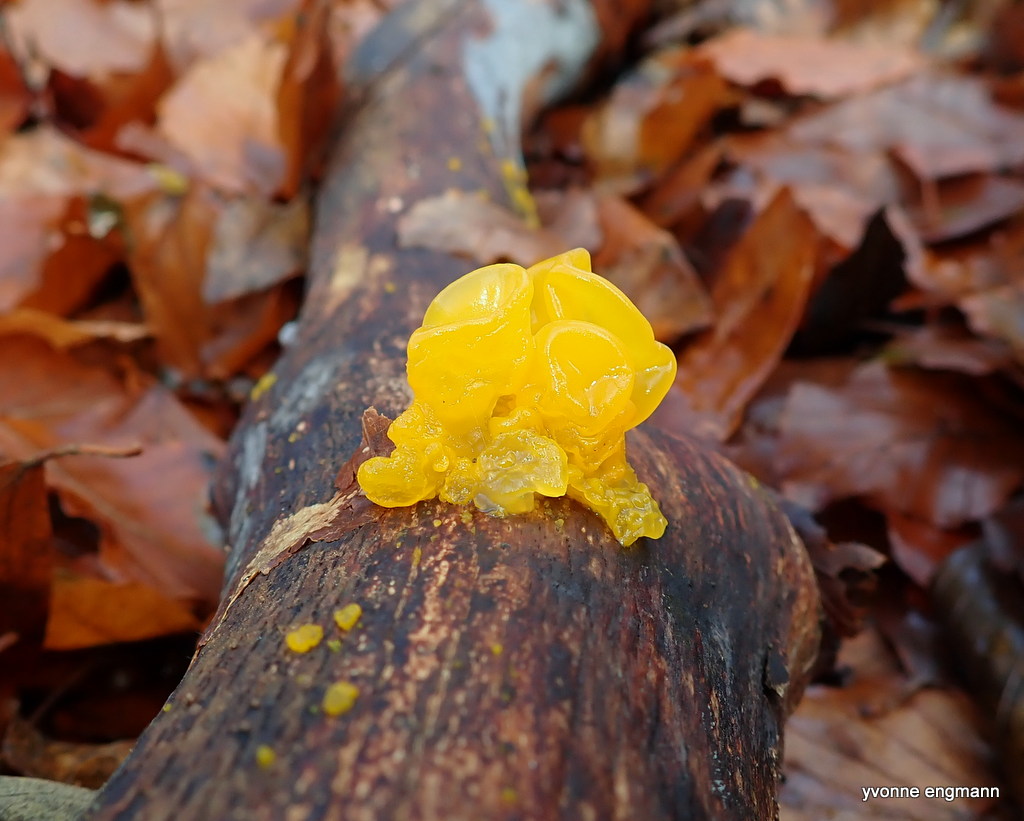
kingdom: Fungi
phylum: Basidiomycota
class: Tremellomycetes
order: Tremellales
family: Tremellaceae
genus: Tremella
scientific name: Tremella mesenterica
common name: gul bævresvamp
